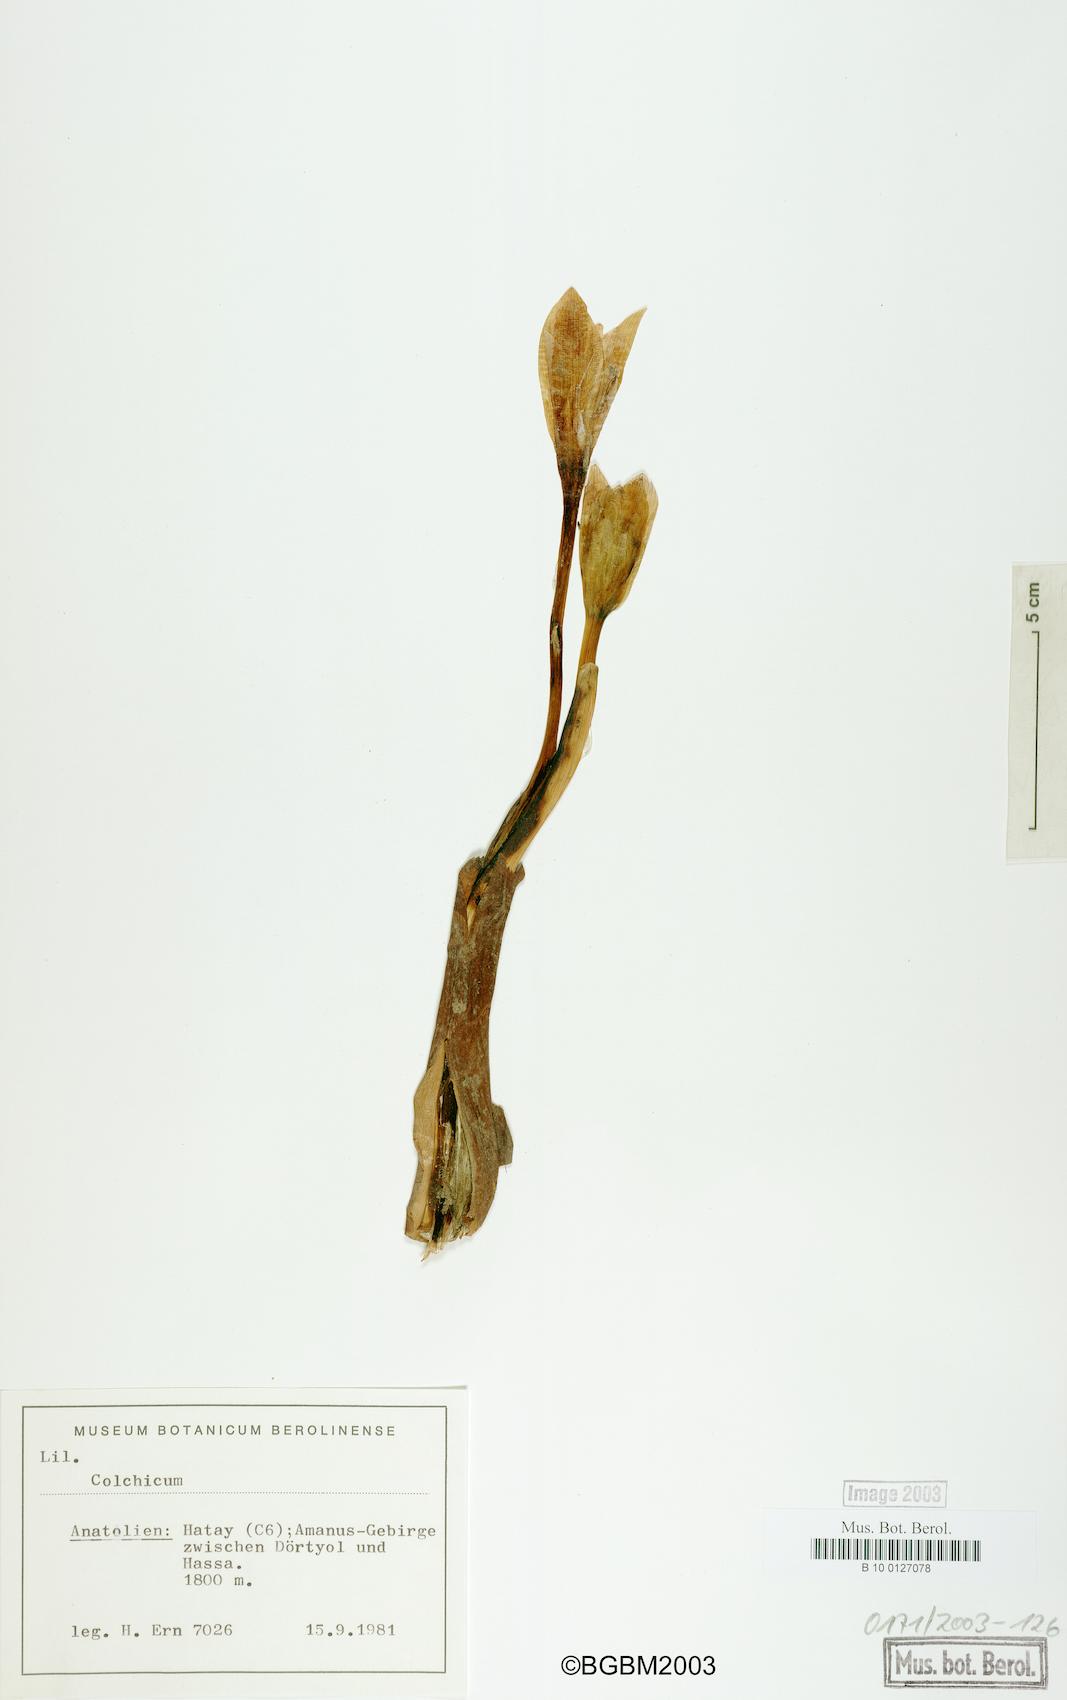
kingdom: Plantae
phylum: Tracheophyta
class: Liliopsida
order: Liliales
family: Colchicaceae
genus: Colchicum
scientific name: Colchicum
